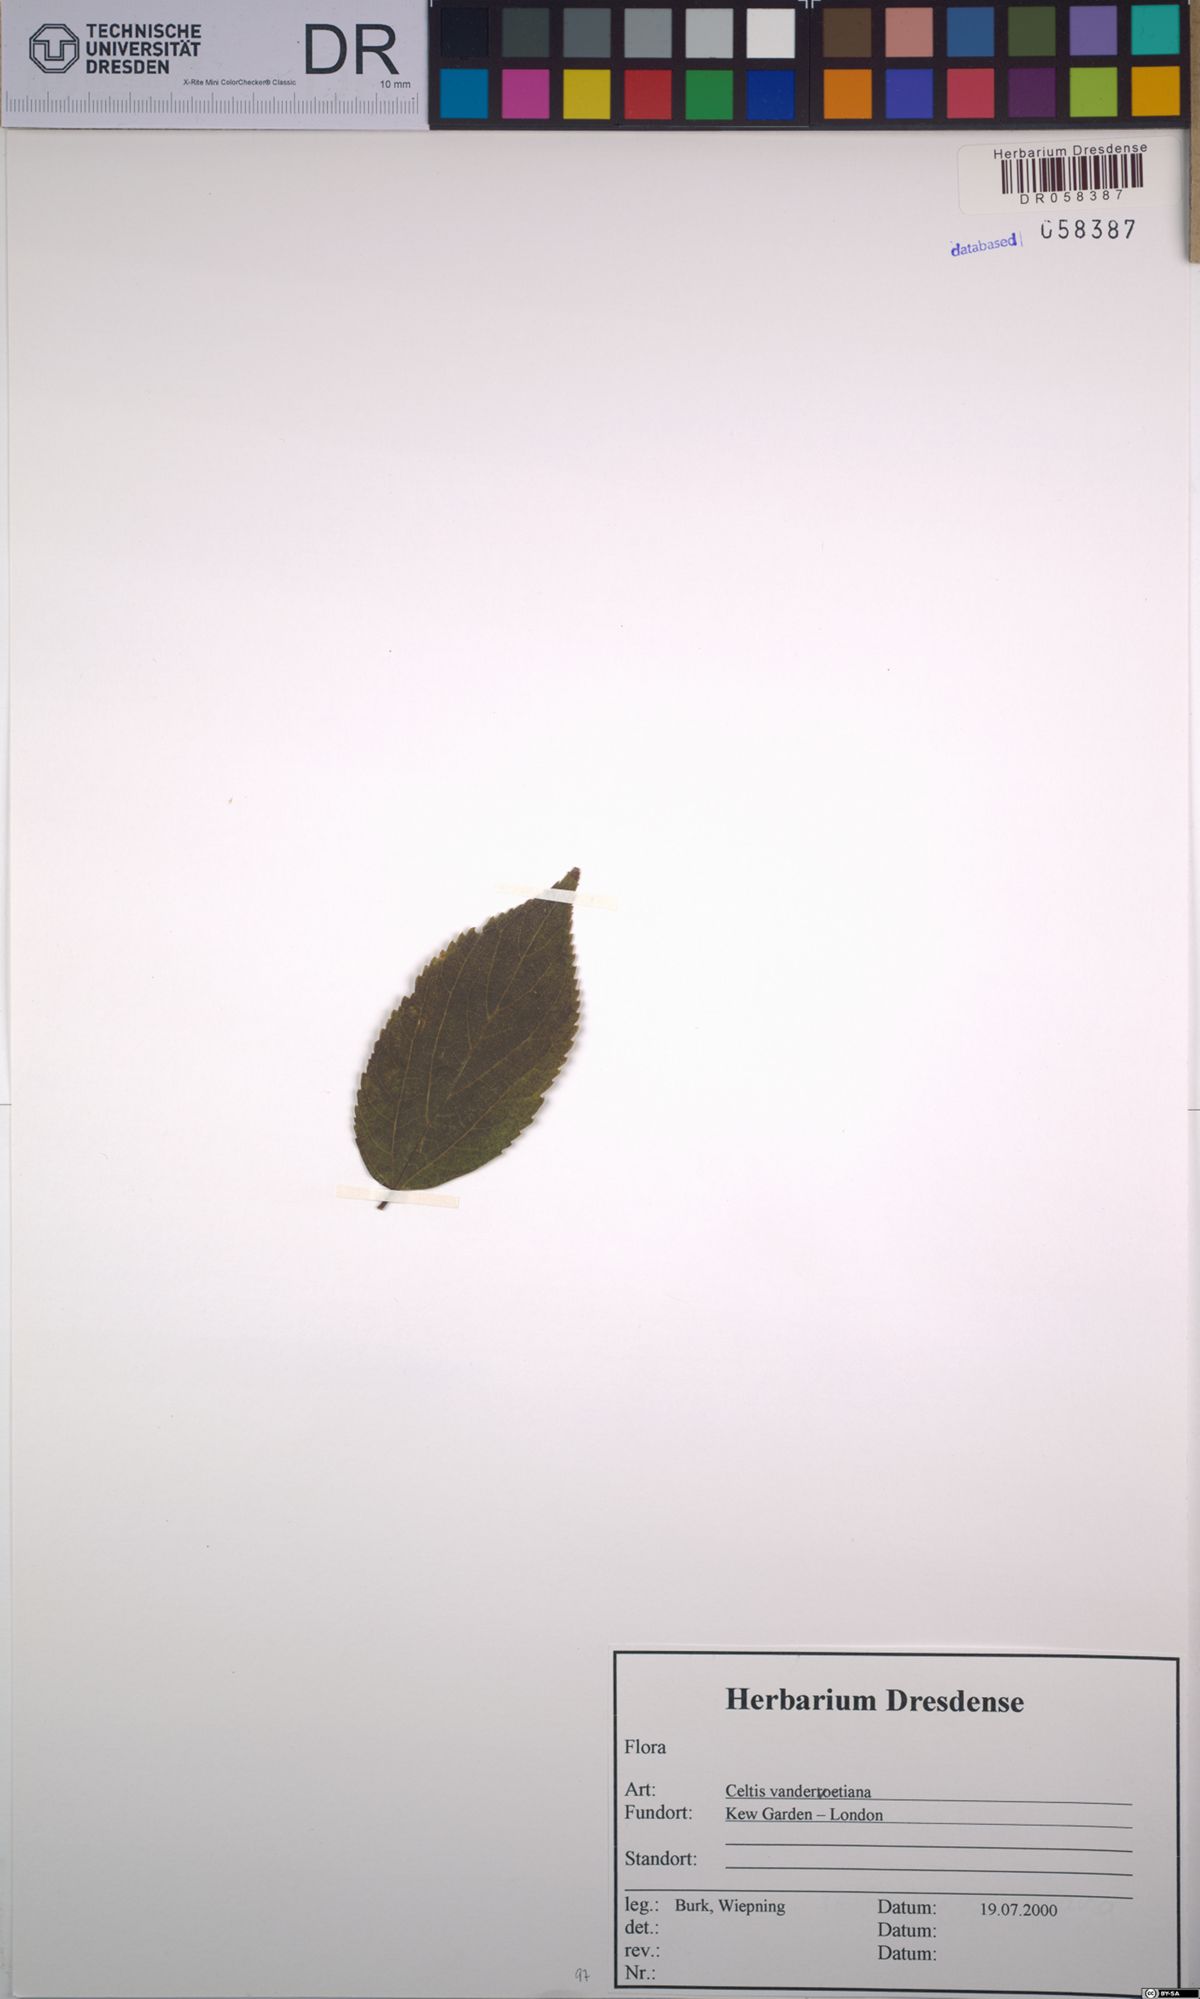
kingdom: Plantae
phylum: Tracheophyta
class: Magnoliopsida
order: Rosales
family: Cannabaceae
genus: Celtis
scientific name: Celtis vandervoetiana
